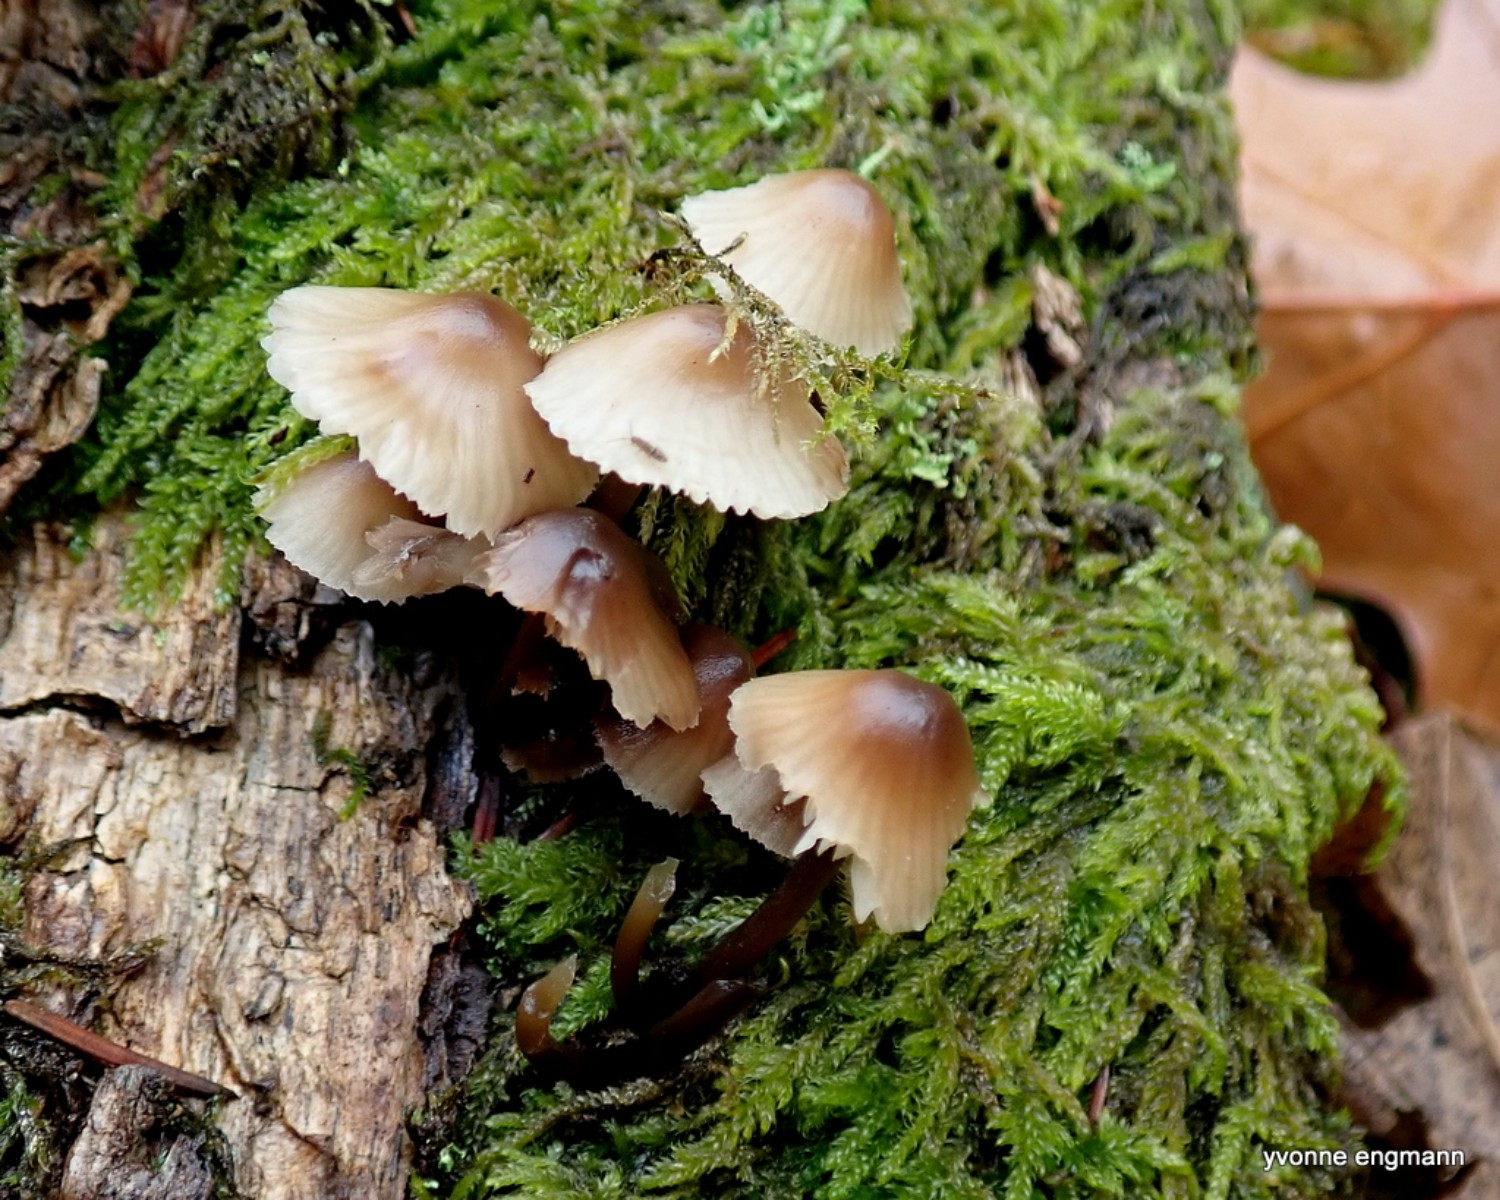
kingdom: Fungi
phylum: Basidiomycota
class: Agaricomycetes
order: Agaricales
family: Mycenaceae
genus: Mycena
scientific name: Mycena
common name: huesvamp
